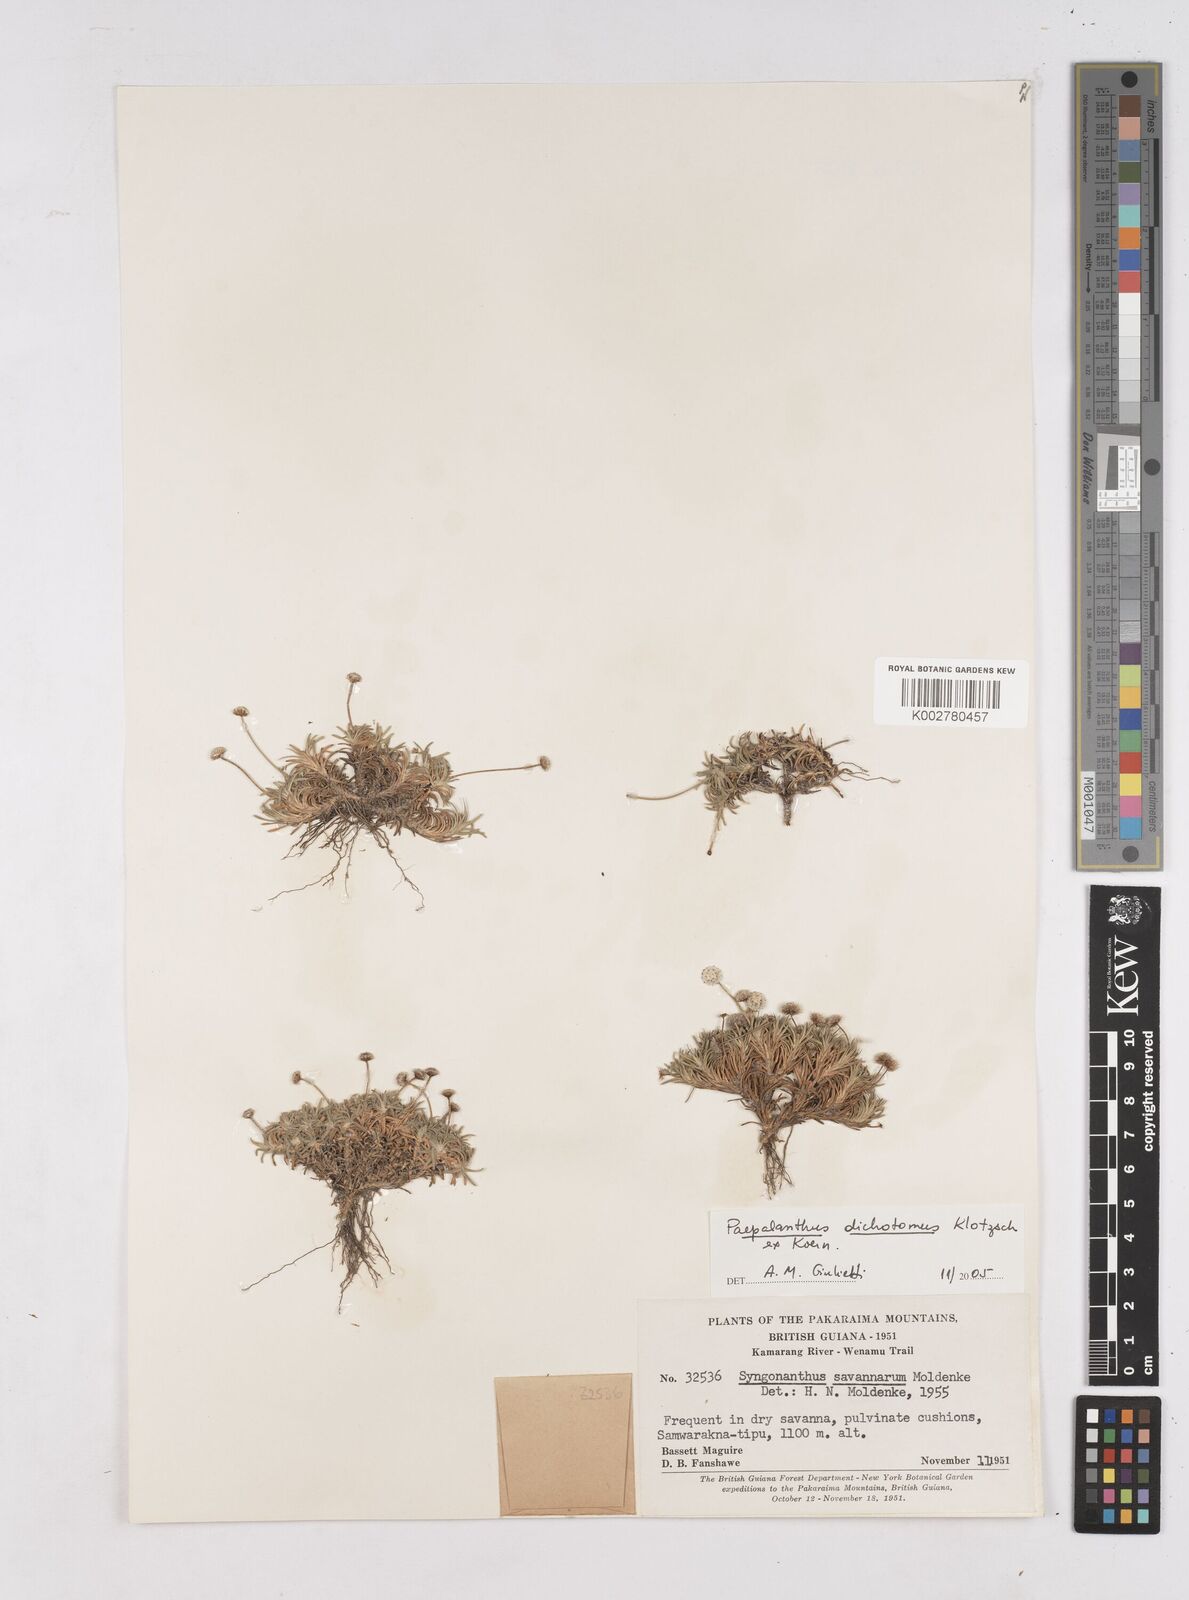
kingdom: Plantae
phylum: Tracheophyta
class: Liliopsida
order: Poales
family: Eriocaulaceae
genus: Paepalanthus
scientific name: Paepalanthus dichotomus
